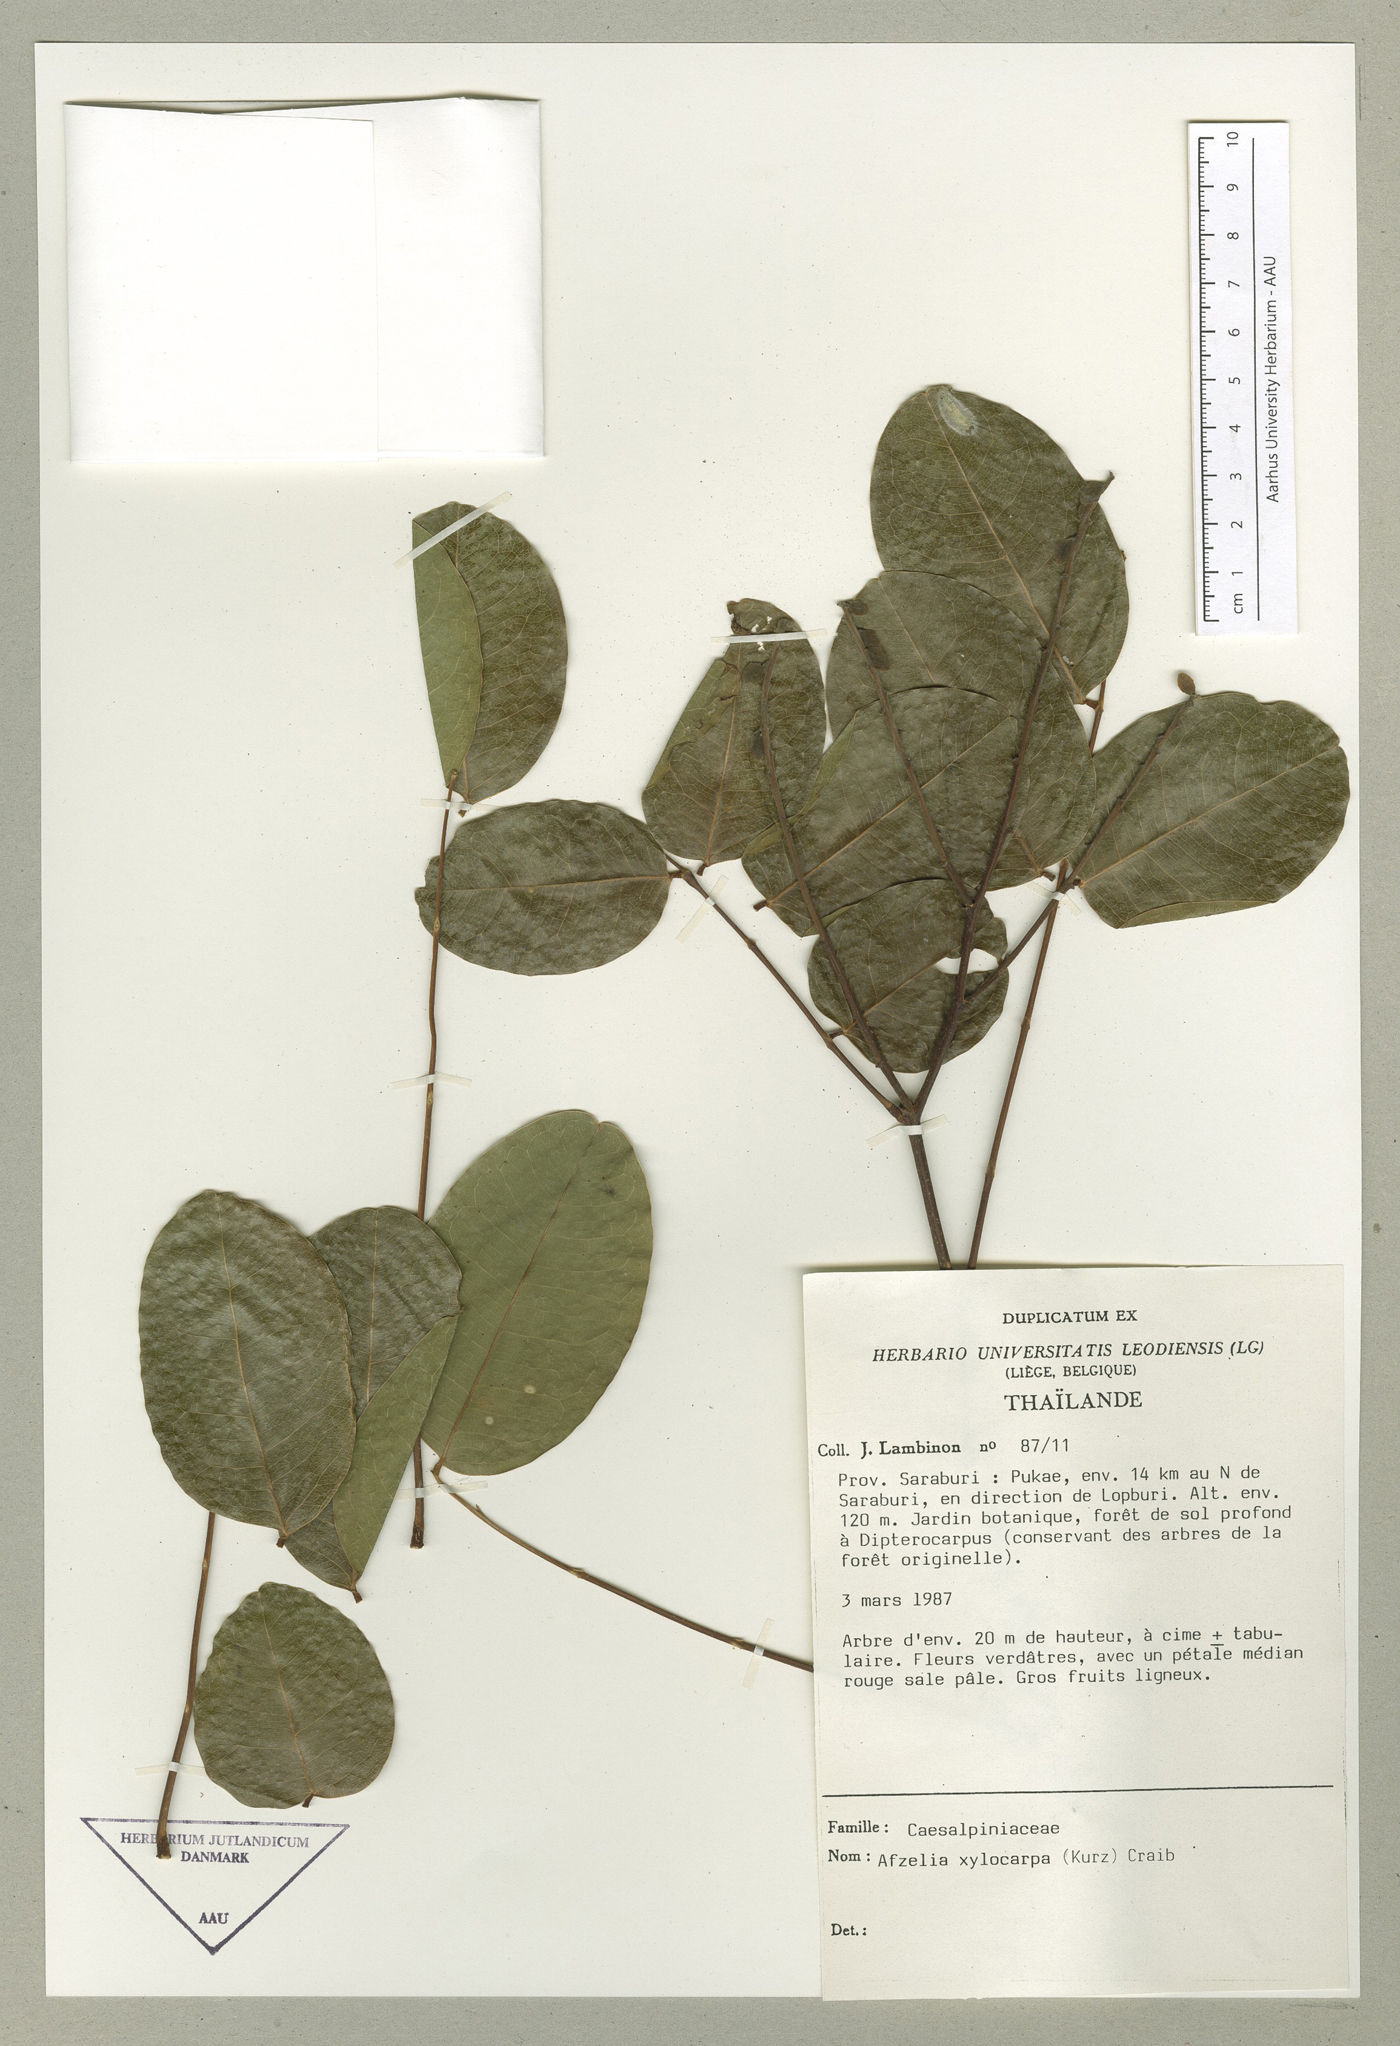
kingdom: Plantae
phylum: Tracheophyta
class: Magnoliopsida
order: Fabales
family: Fabaceae
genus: Afzelia
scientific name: Afzelia xylocarpa
